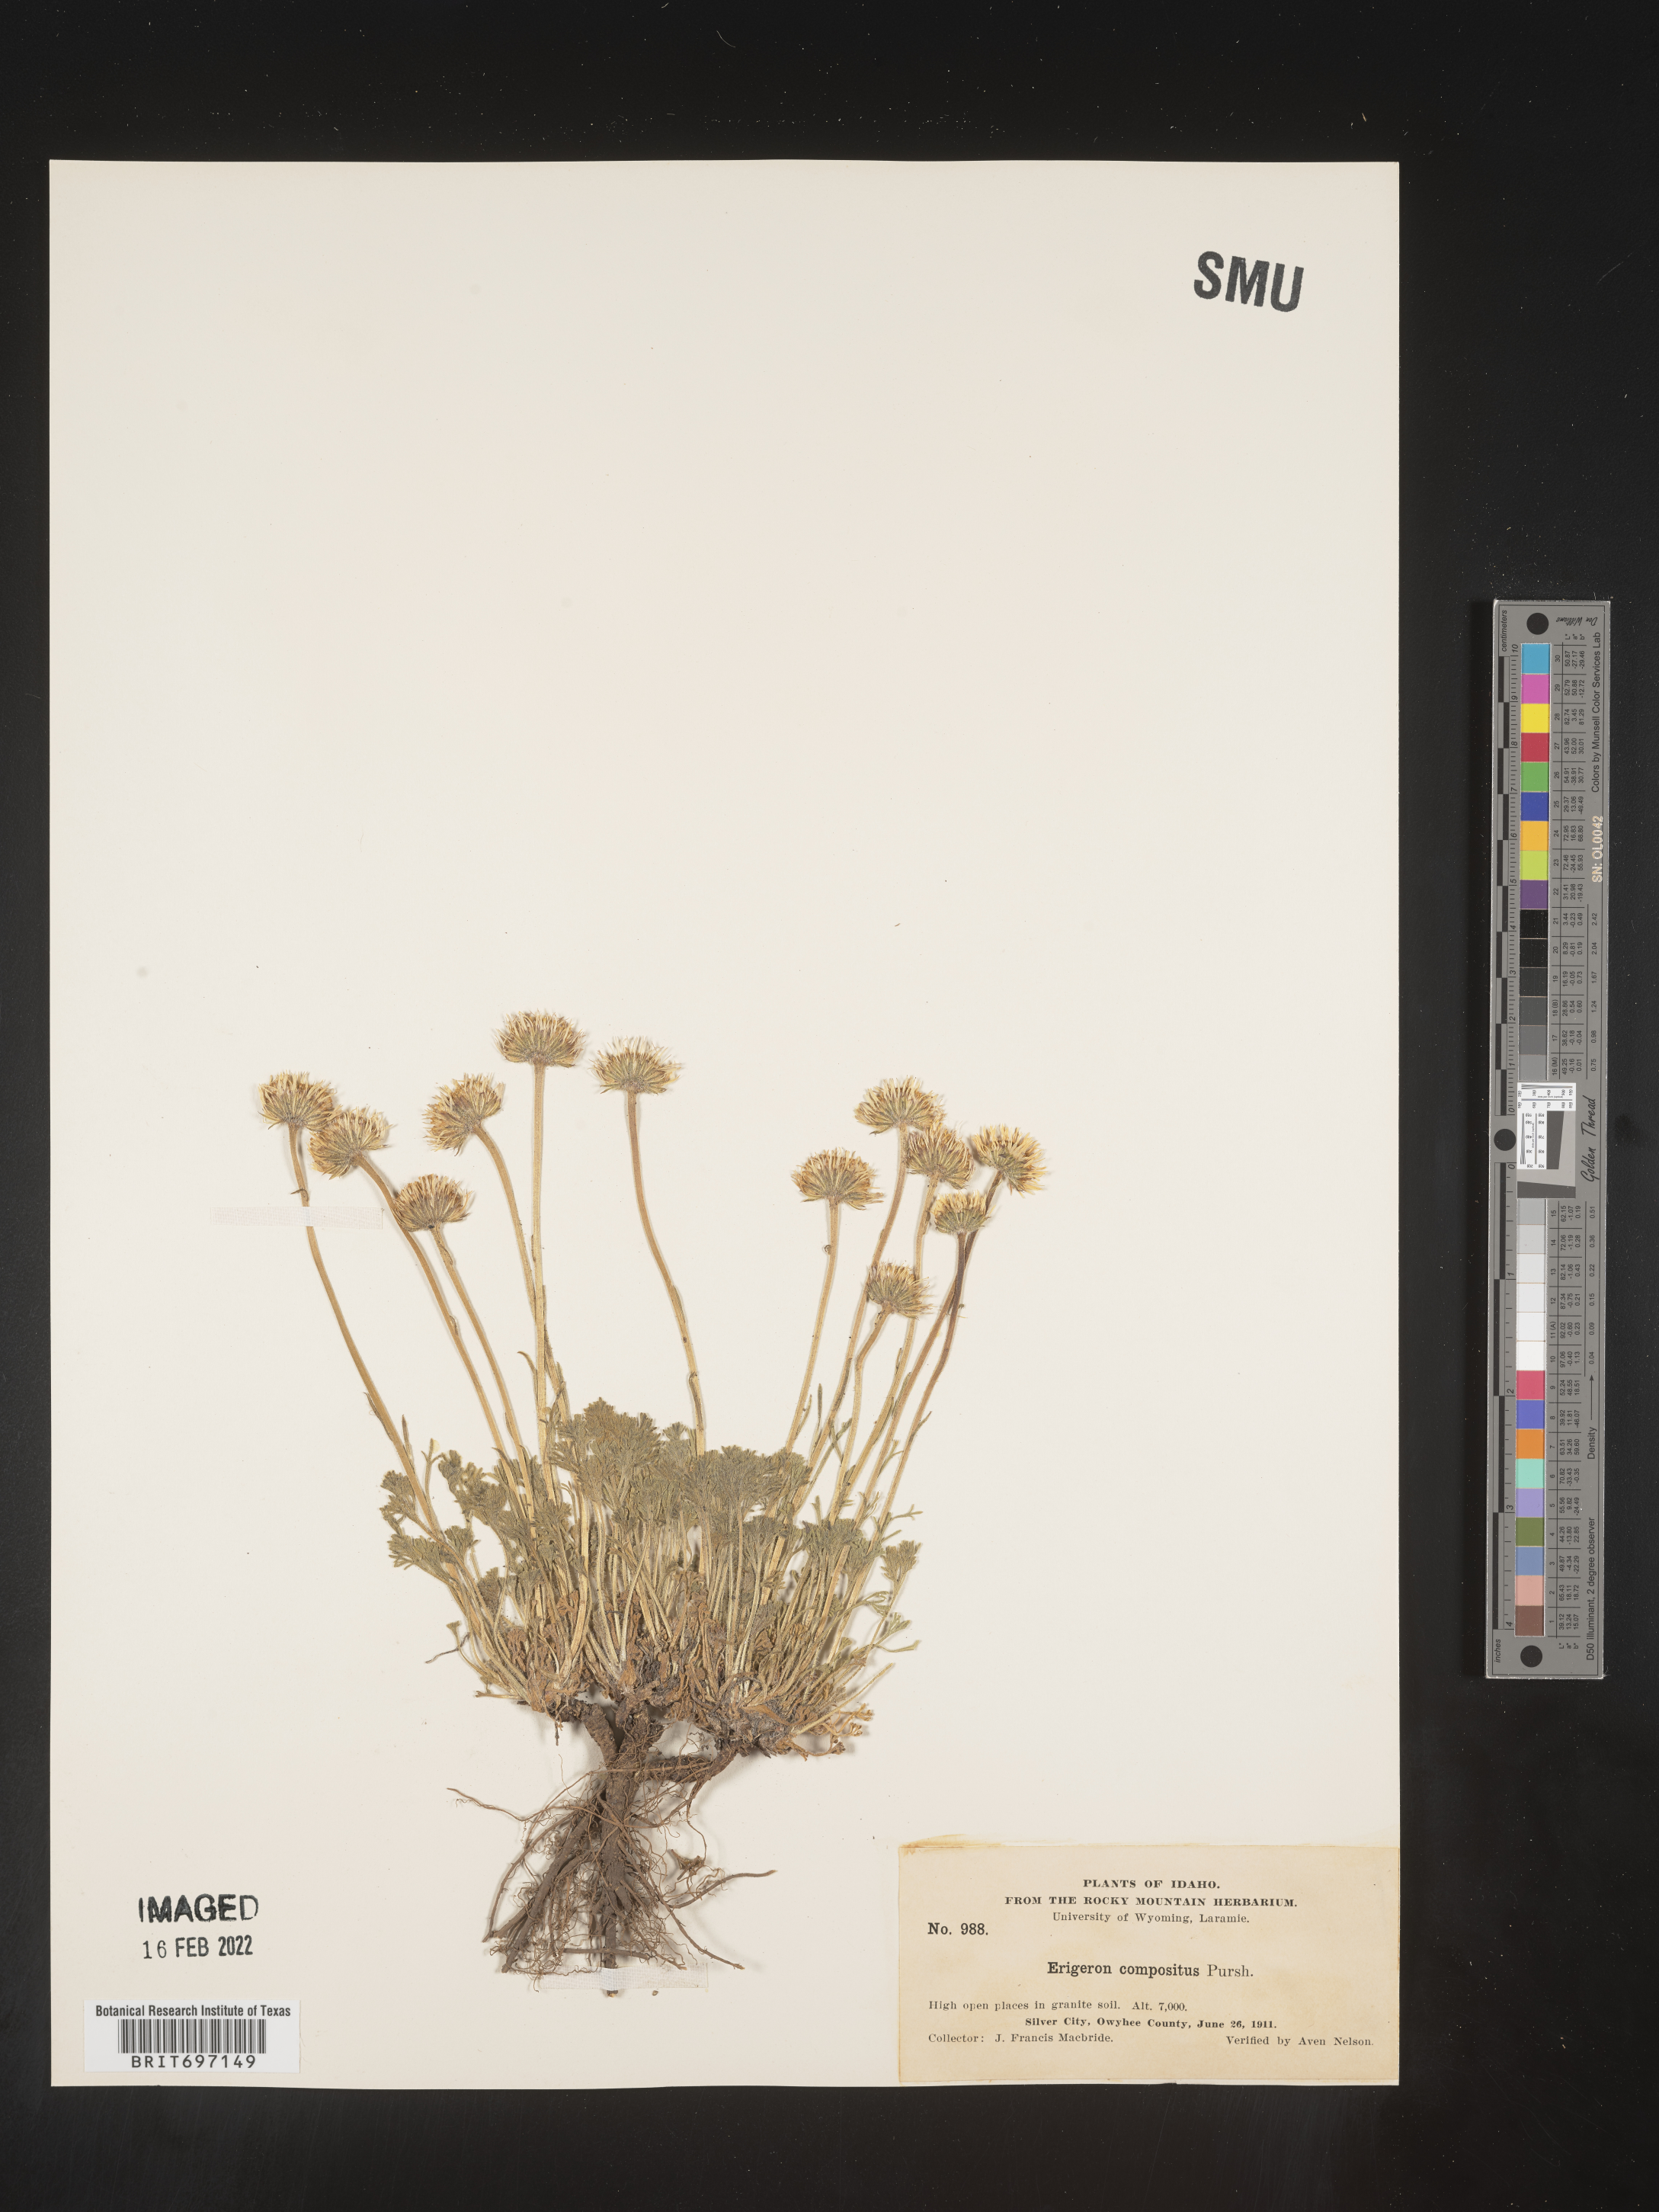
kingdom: Plantae
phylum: Tracheophyta
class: Magnoliopsida
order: Asterales
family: Asteraceae
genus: Erigeron
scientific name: Erigeron compositus
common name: Dwarf mountain fleabane
